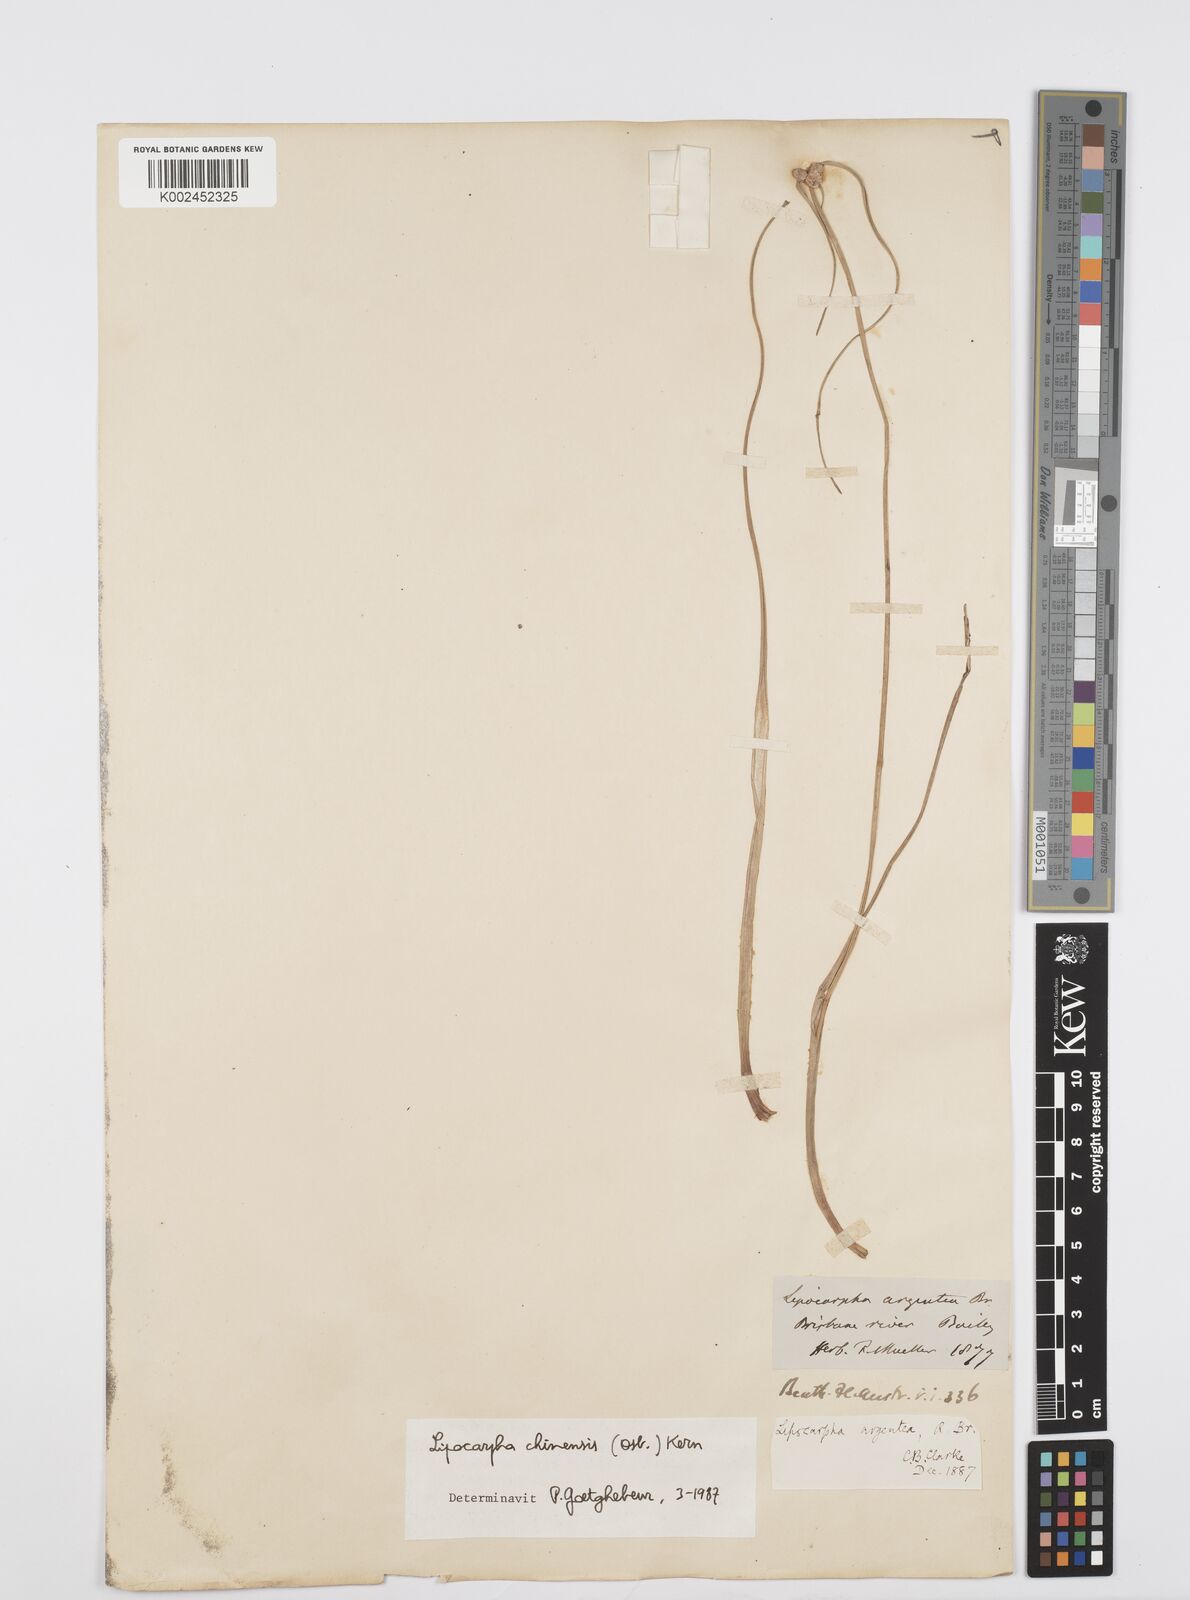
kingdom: Plantae
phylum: Tracheophyta
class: Liliopsida
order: Poales
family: Cyperaceae
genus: Cyperus
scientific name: Cyperus
